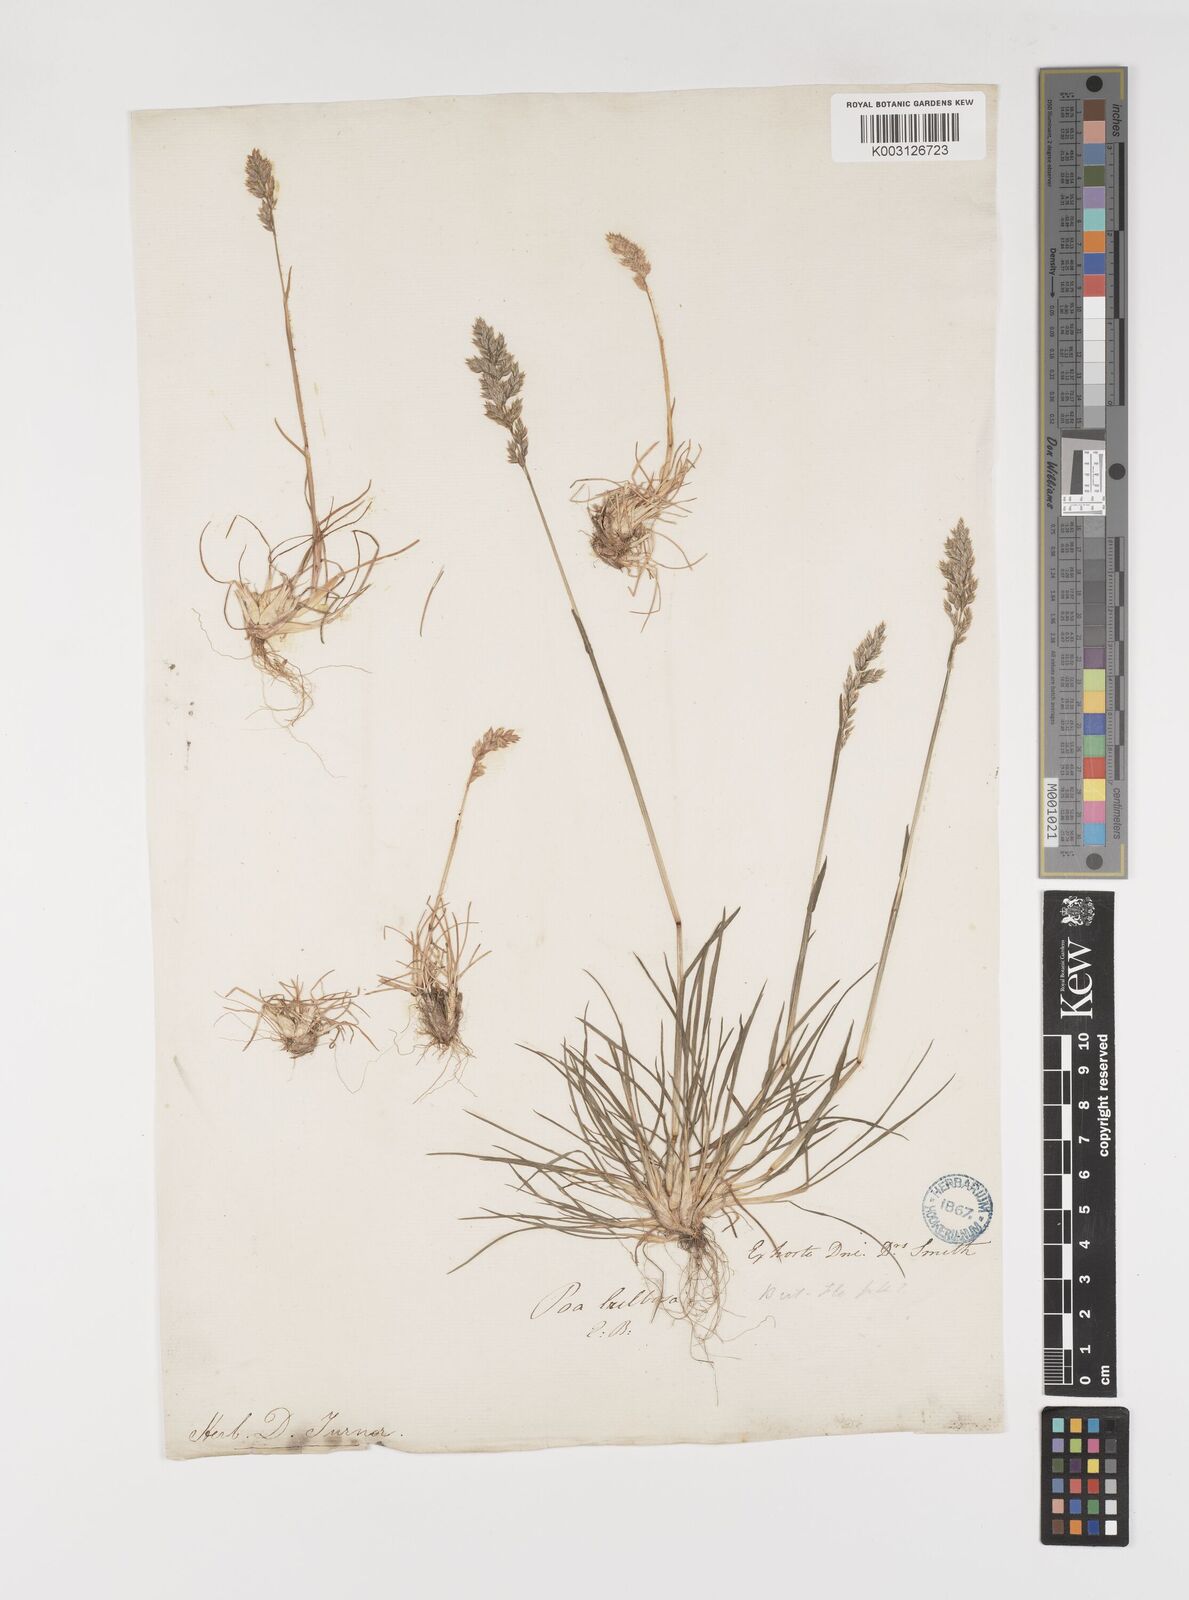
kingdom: Plantae
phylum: Tracheophyta
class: Liliopsida
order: Poales
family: Poaceae
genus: Poa
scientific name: Poa bulbosa
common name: Bulbous bluegrass
